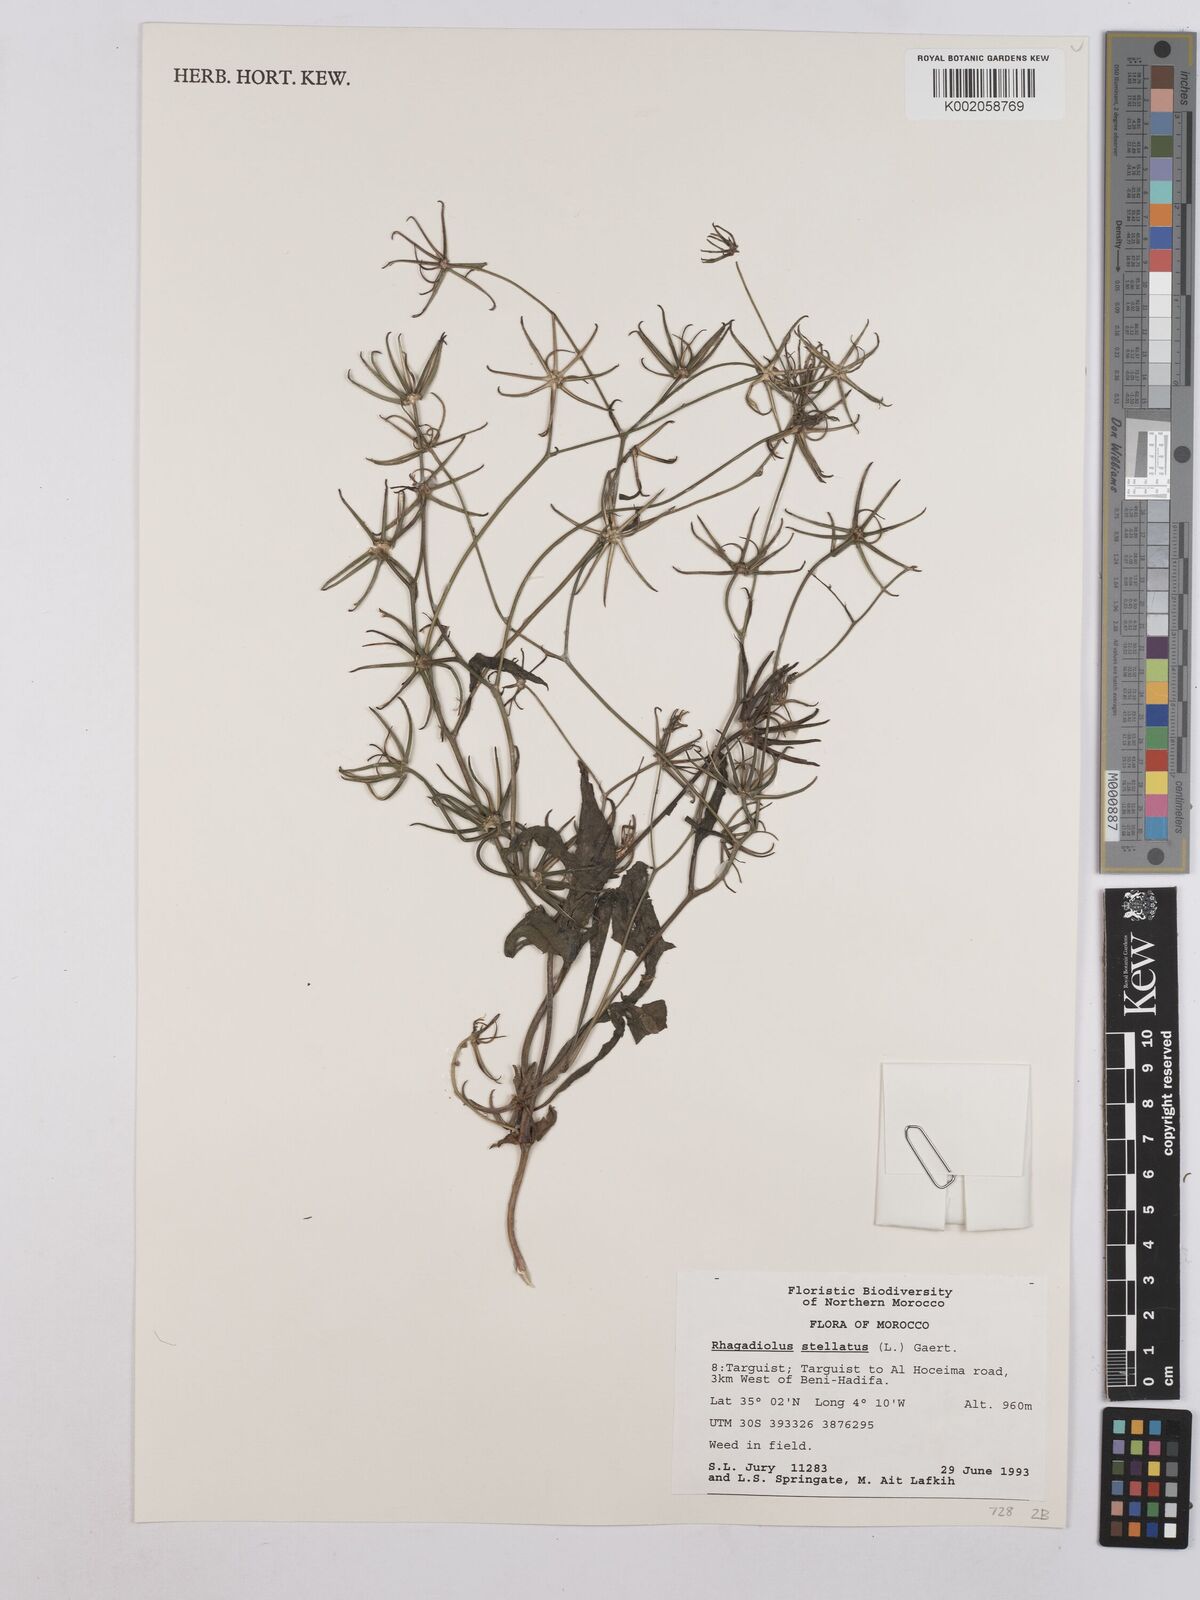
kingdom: Plantae
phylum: Tracheophyta
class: Magnoliopsida
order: Asterales
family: Asteraceae
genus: Rhagadiolus
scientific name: Rhagadiolus stellatus
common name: Star hawkbit
